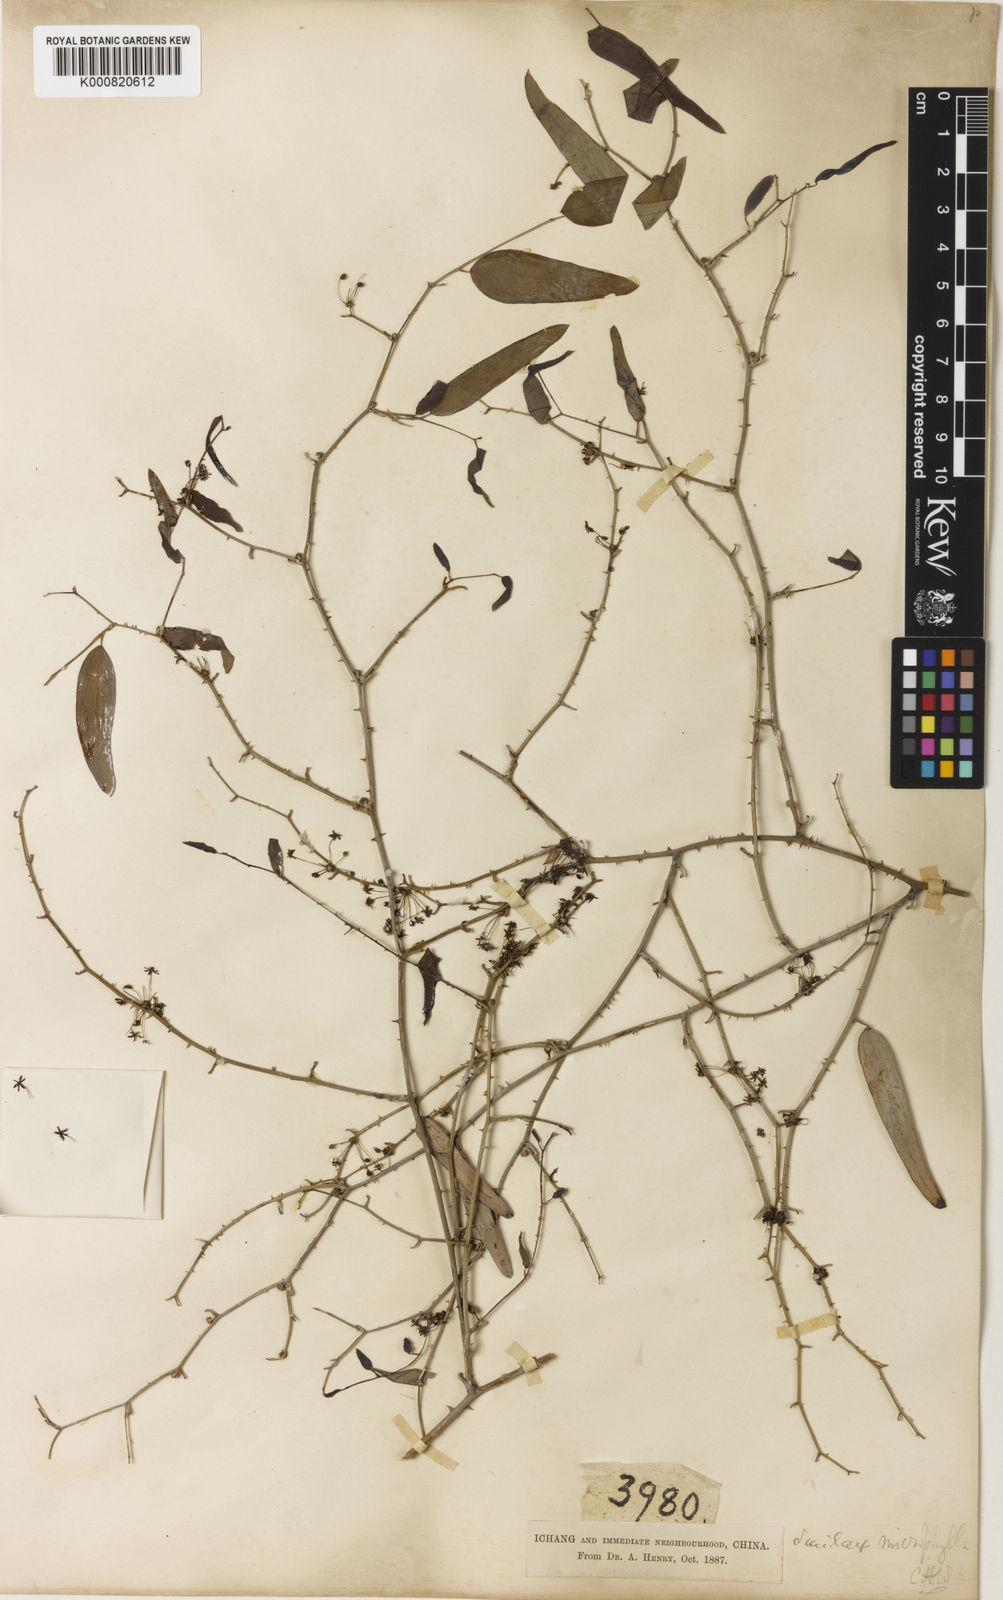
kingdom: Plantae
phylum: Tracheophyta
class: Liliopsida
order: Liliales
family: Smilacaceae
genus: Smilax
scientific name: Smilax microphylla
